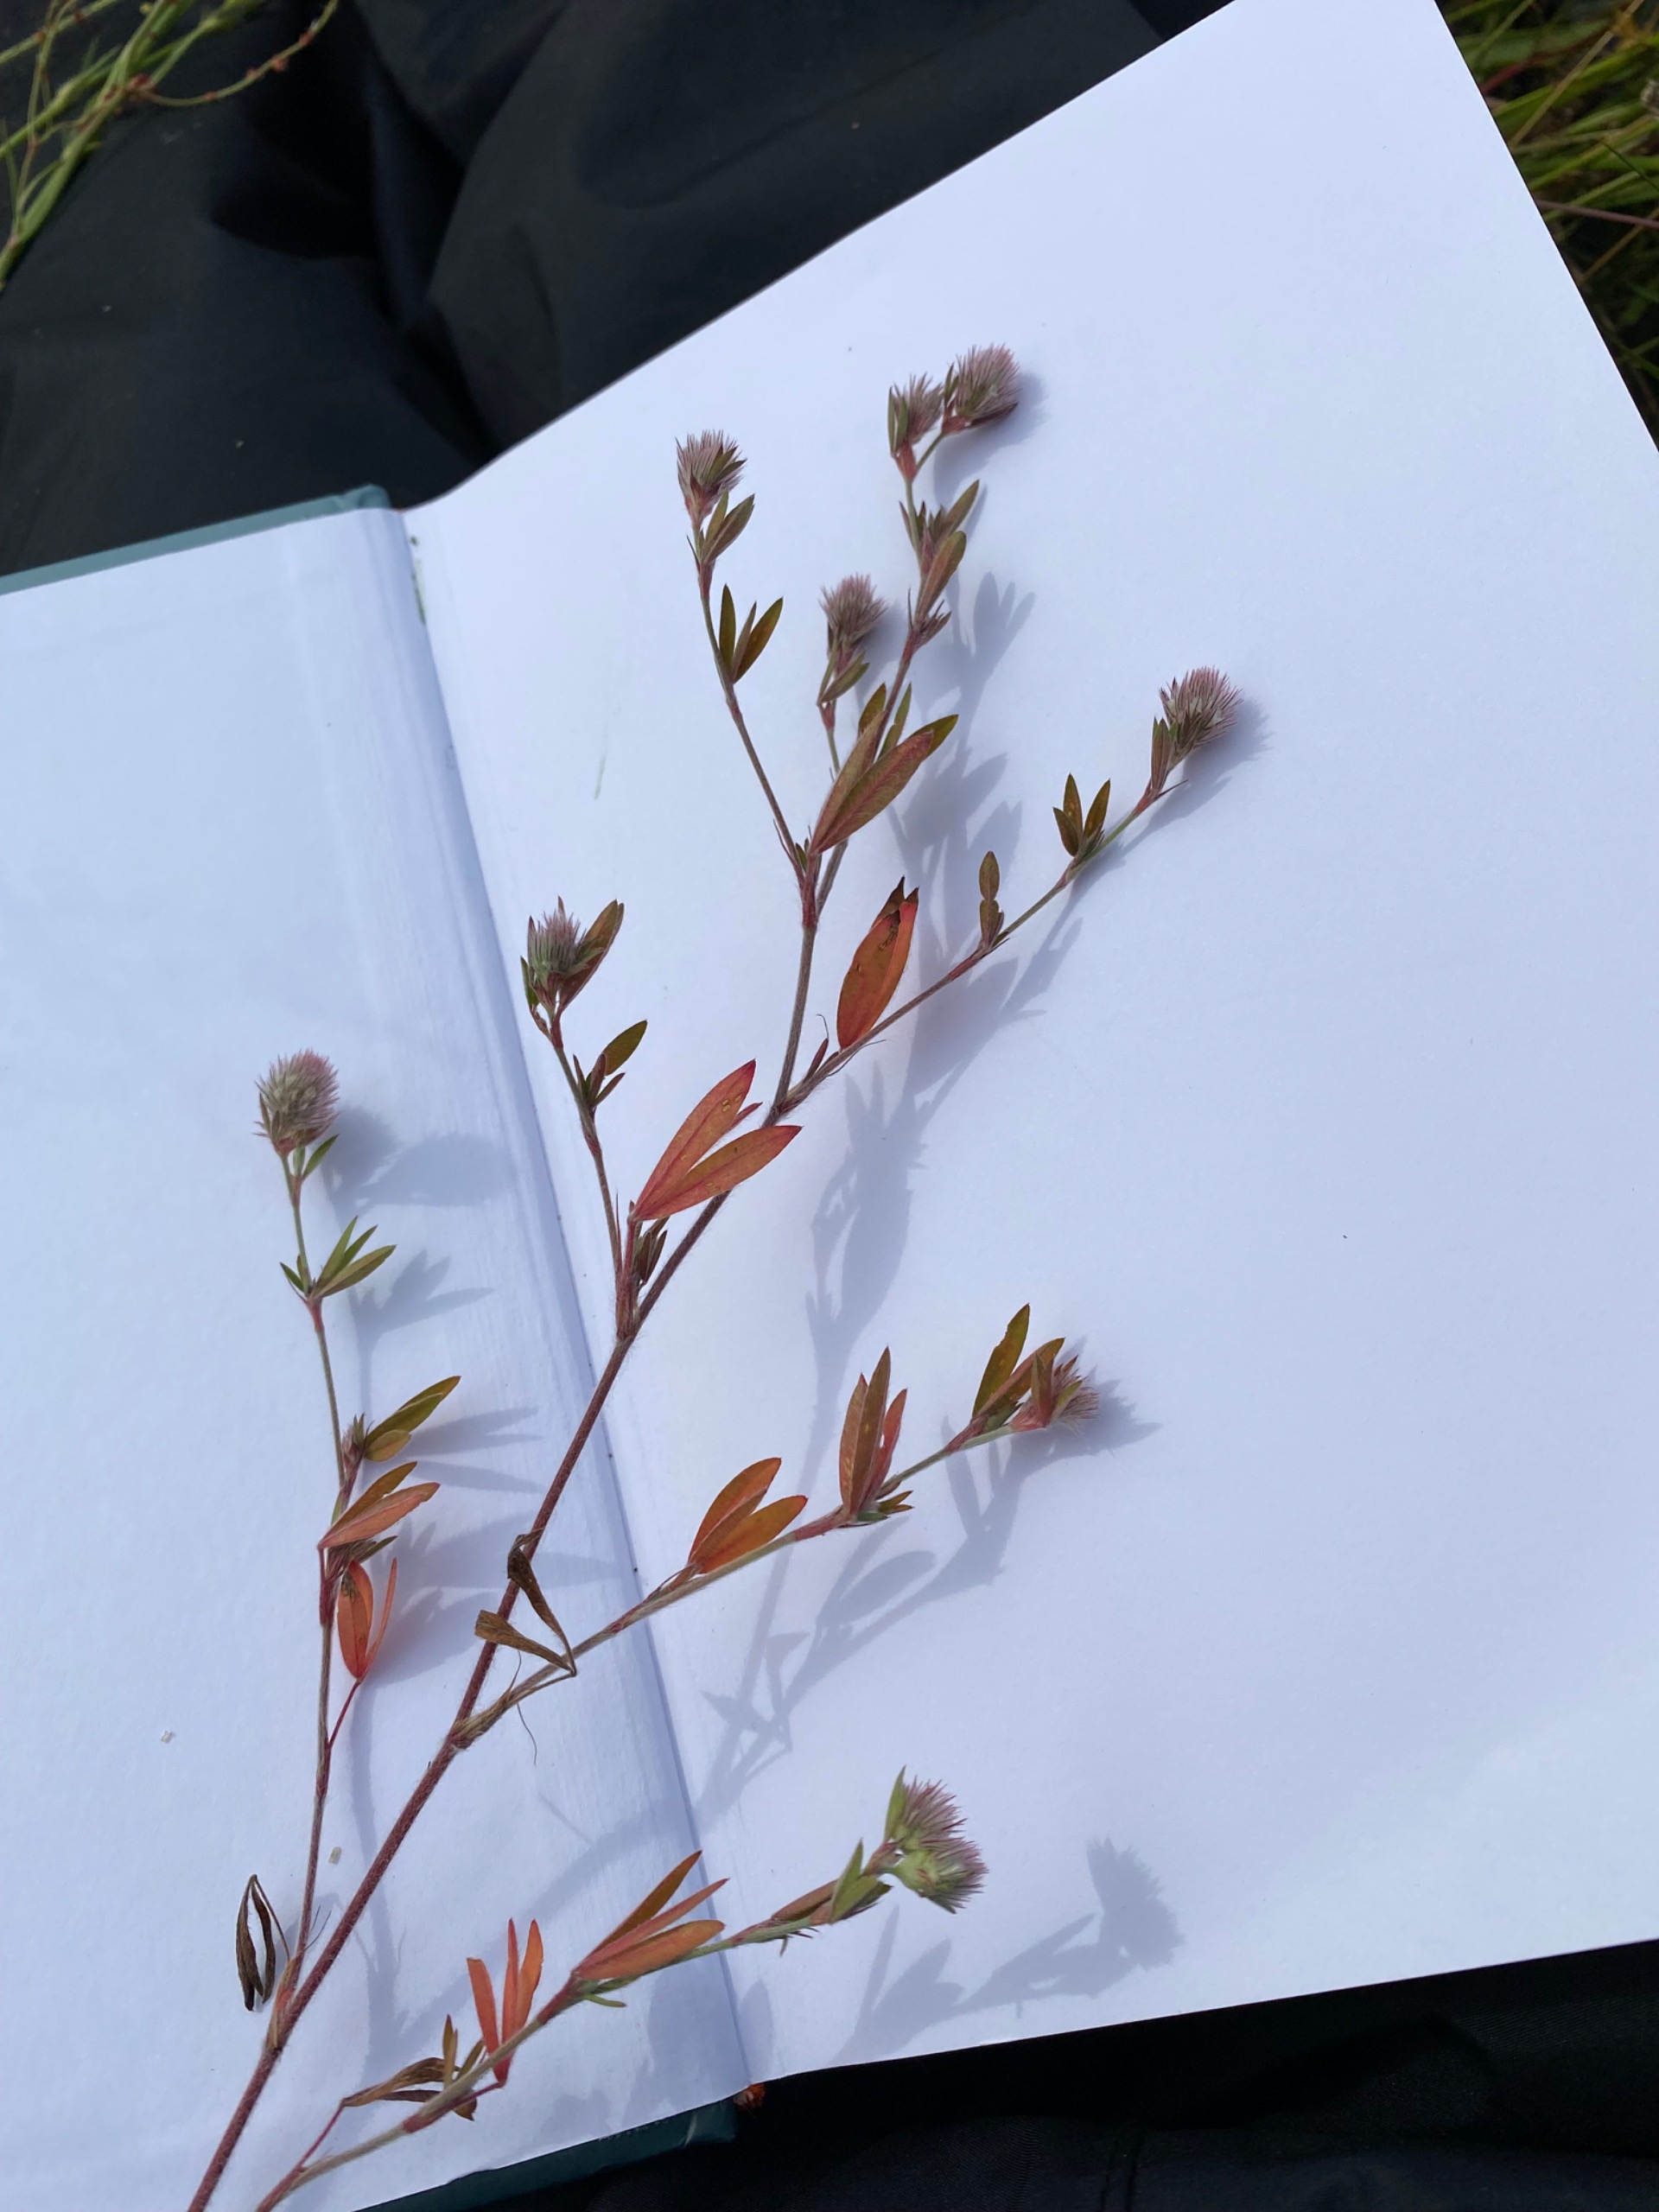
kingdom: Plantae
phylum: Tracheophyta
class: Magnoliopsida
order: Fabales
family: Fabaceae
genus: Trifolium
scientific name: Trifolium arvense
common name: Hare-kløver
